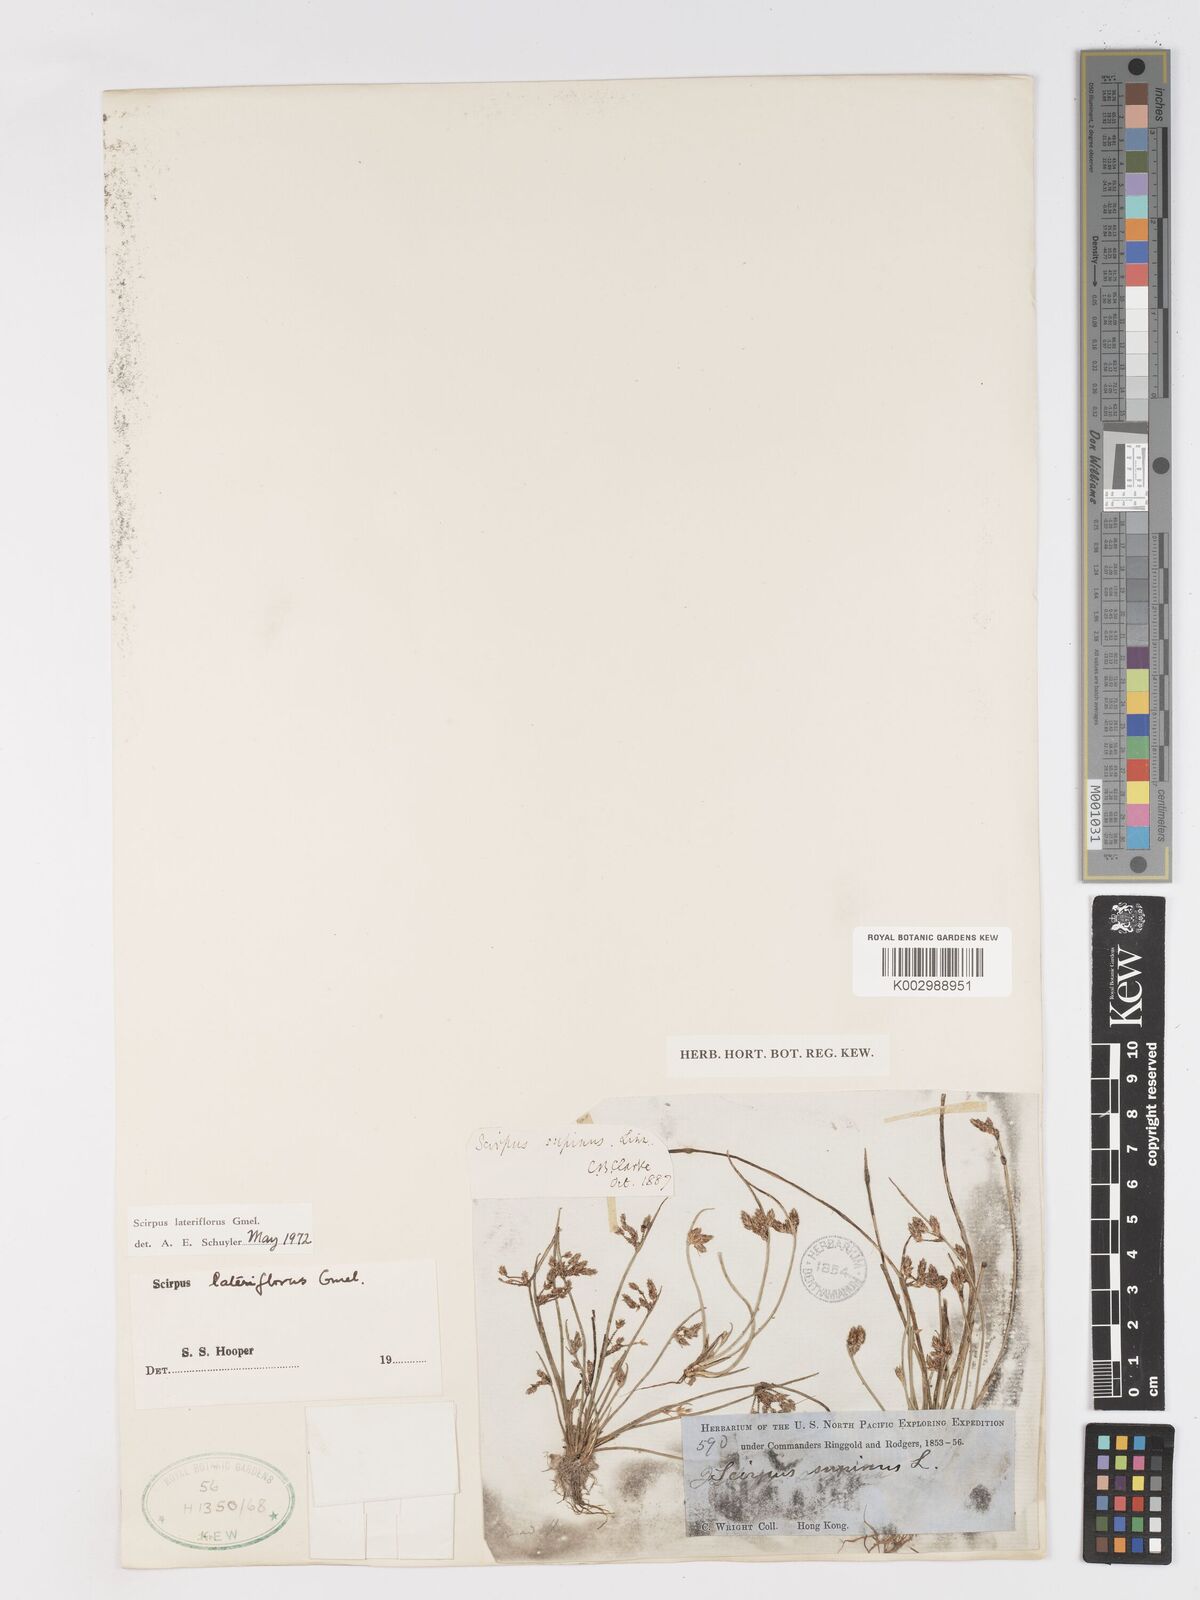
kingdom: Plantae
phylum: Tracheophyta
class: Liliopsida
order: Poales
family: Cyperaceae
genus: Schoenoplectiella
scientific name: Schoenoplectiella lateriflora
